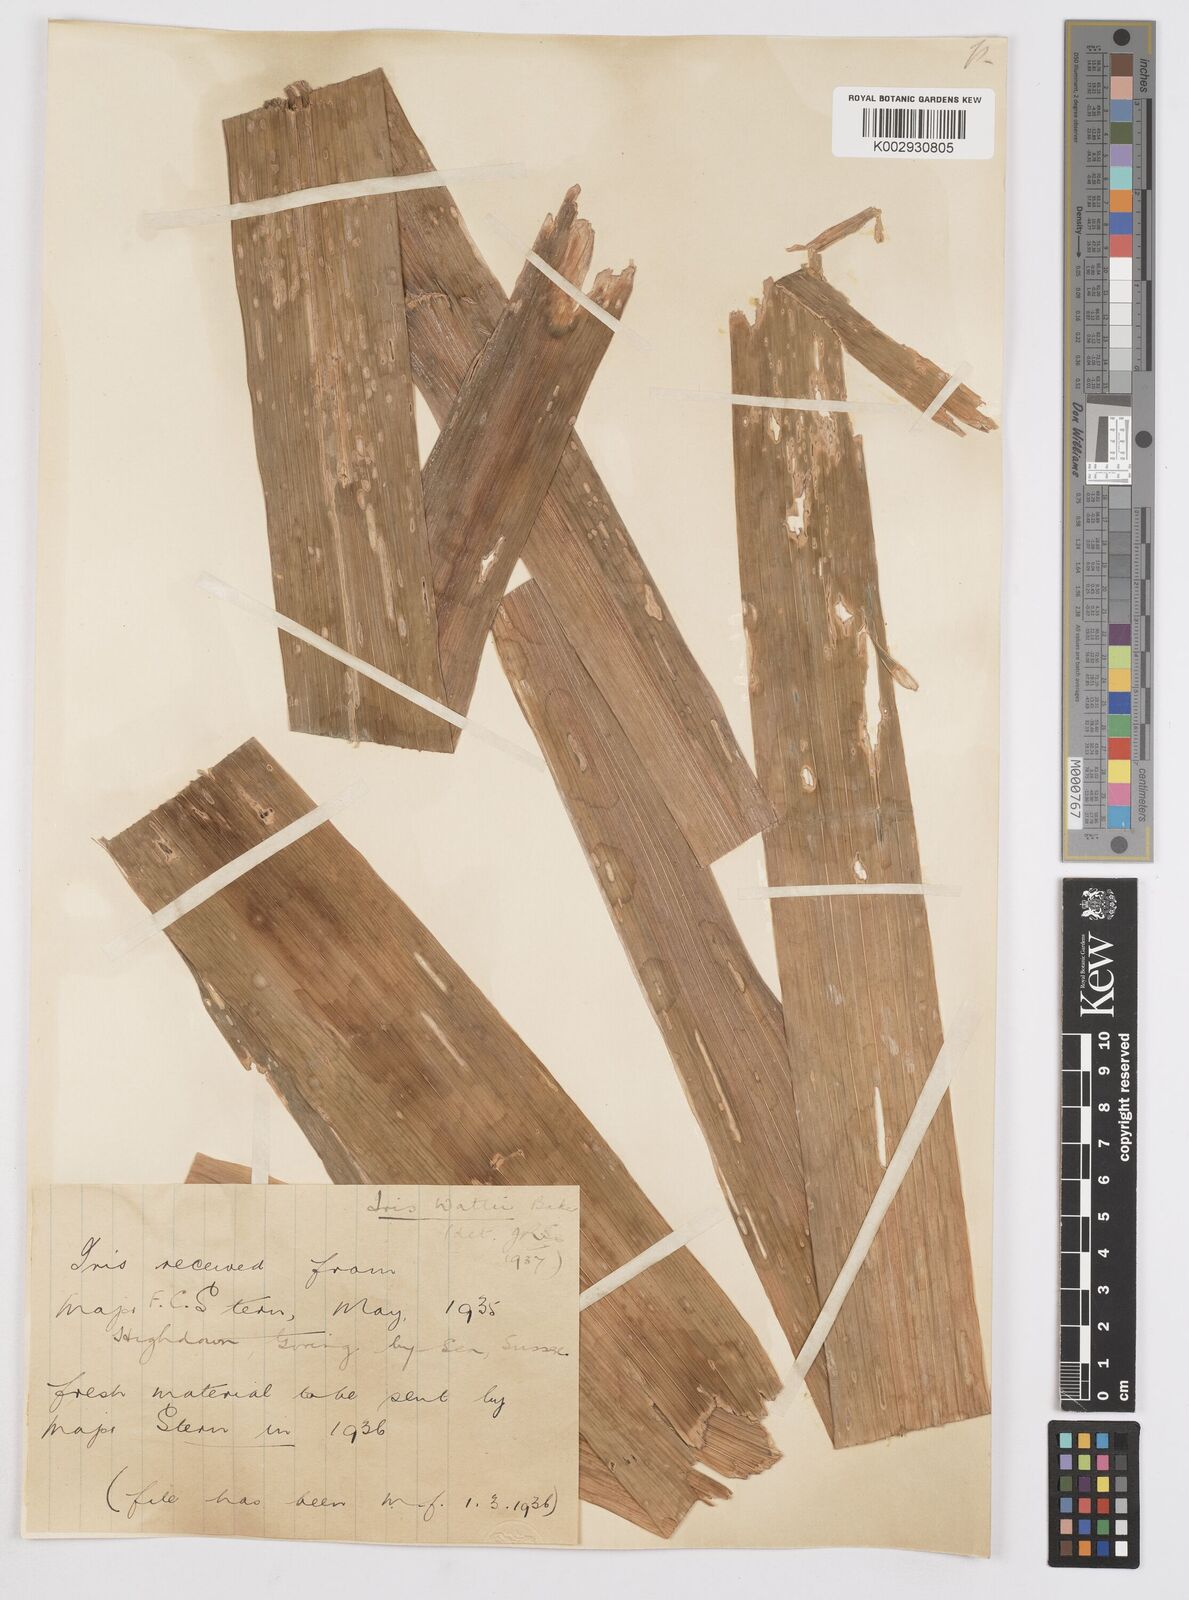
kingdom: Plantae
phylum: Tracheophyta
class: Liliopsida
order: Asparagales
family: Iridaceae
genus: Iris
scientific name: Iris wattii
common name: Fan-shape iris
